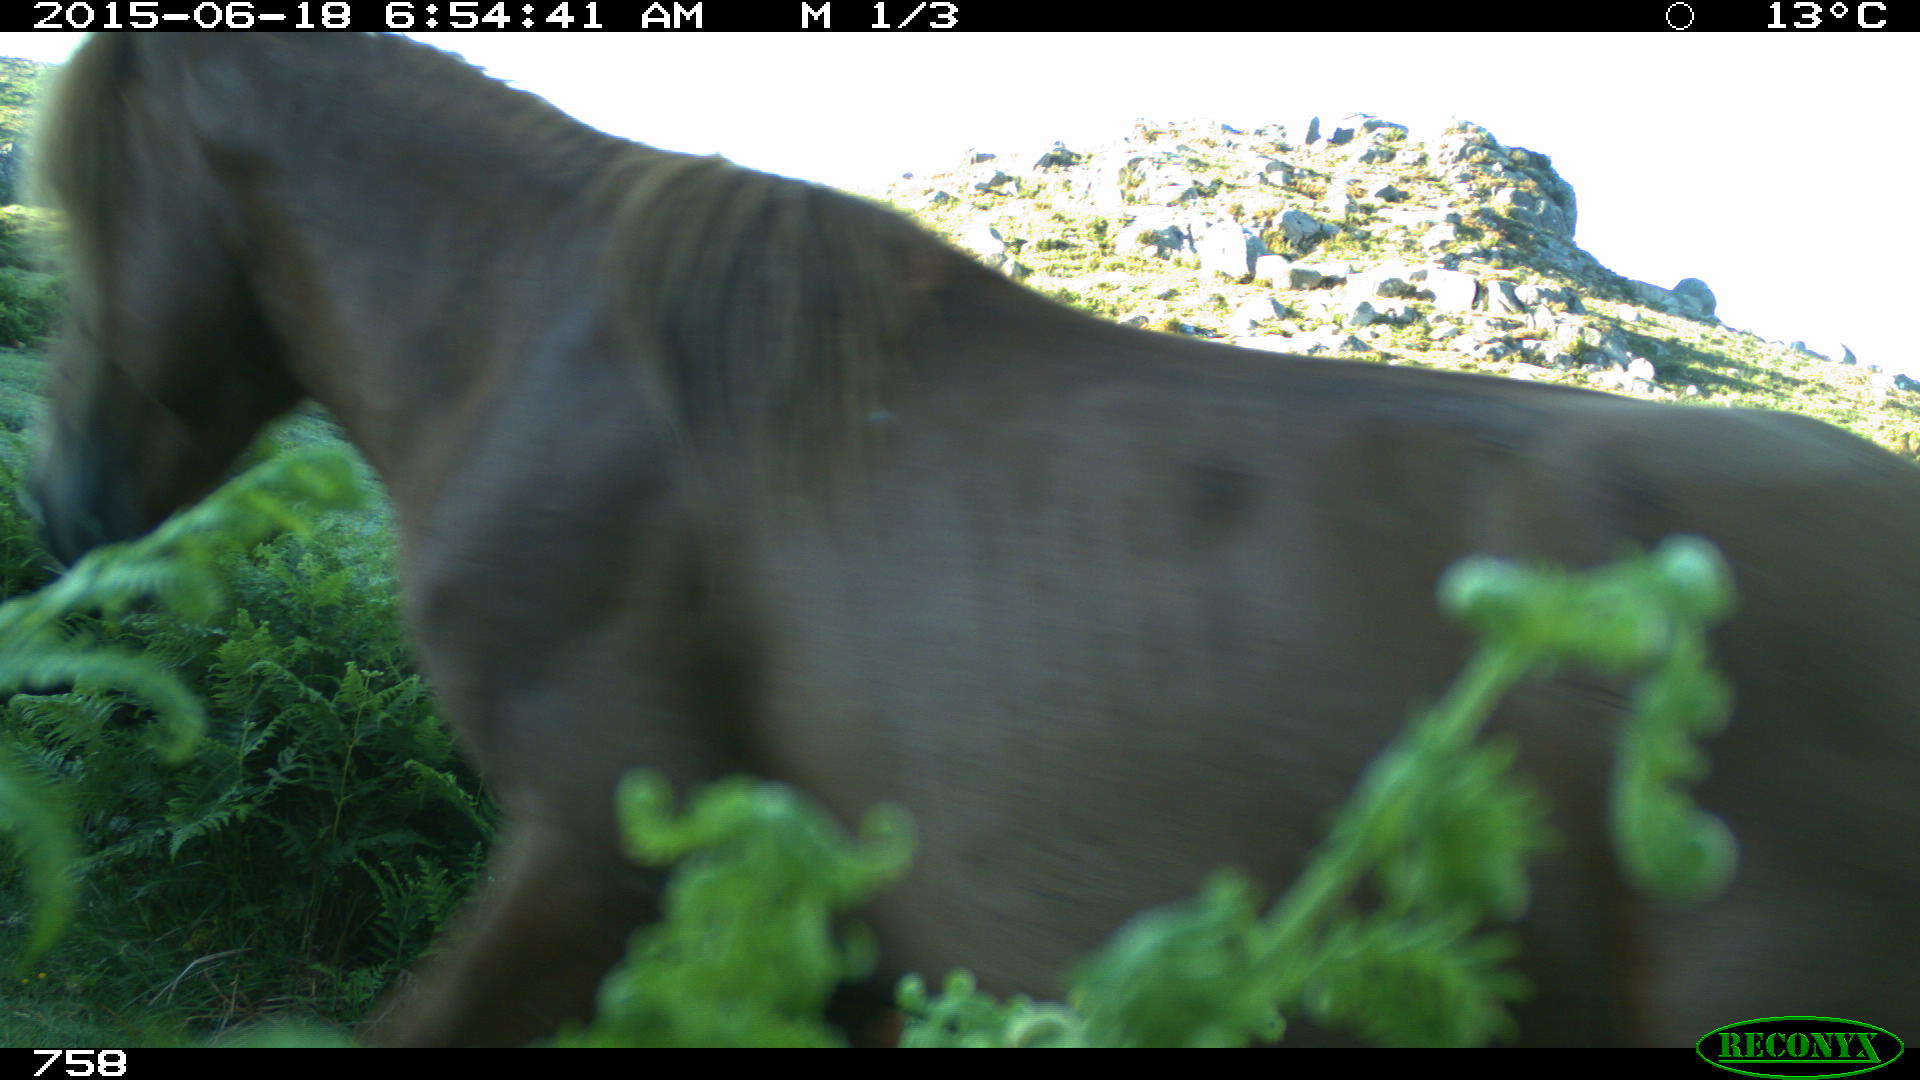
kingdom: Animalia
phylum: Chordata
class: Mammalia
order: Perissodactyla
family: Equidae
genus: Equus
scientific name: Equus caballus
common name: Horse
